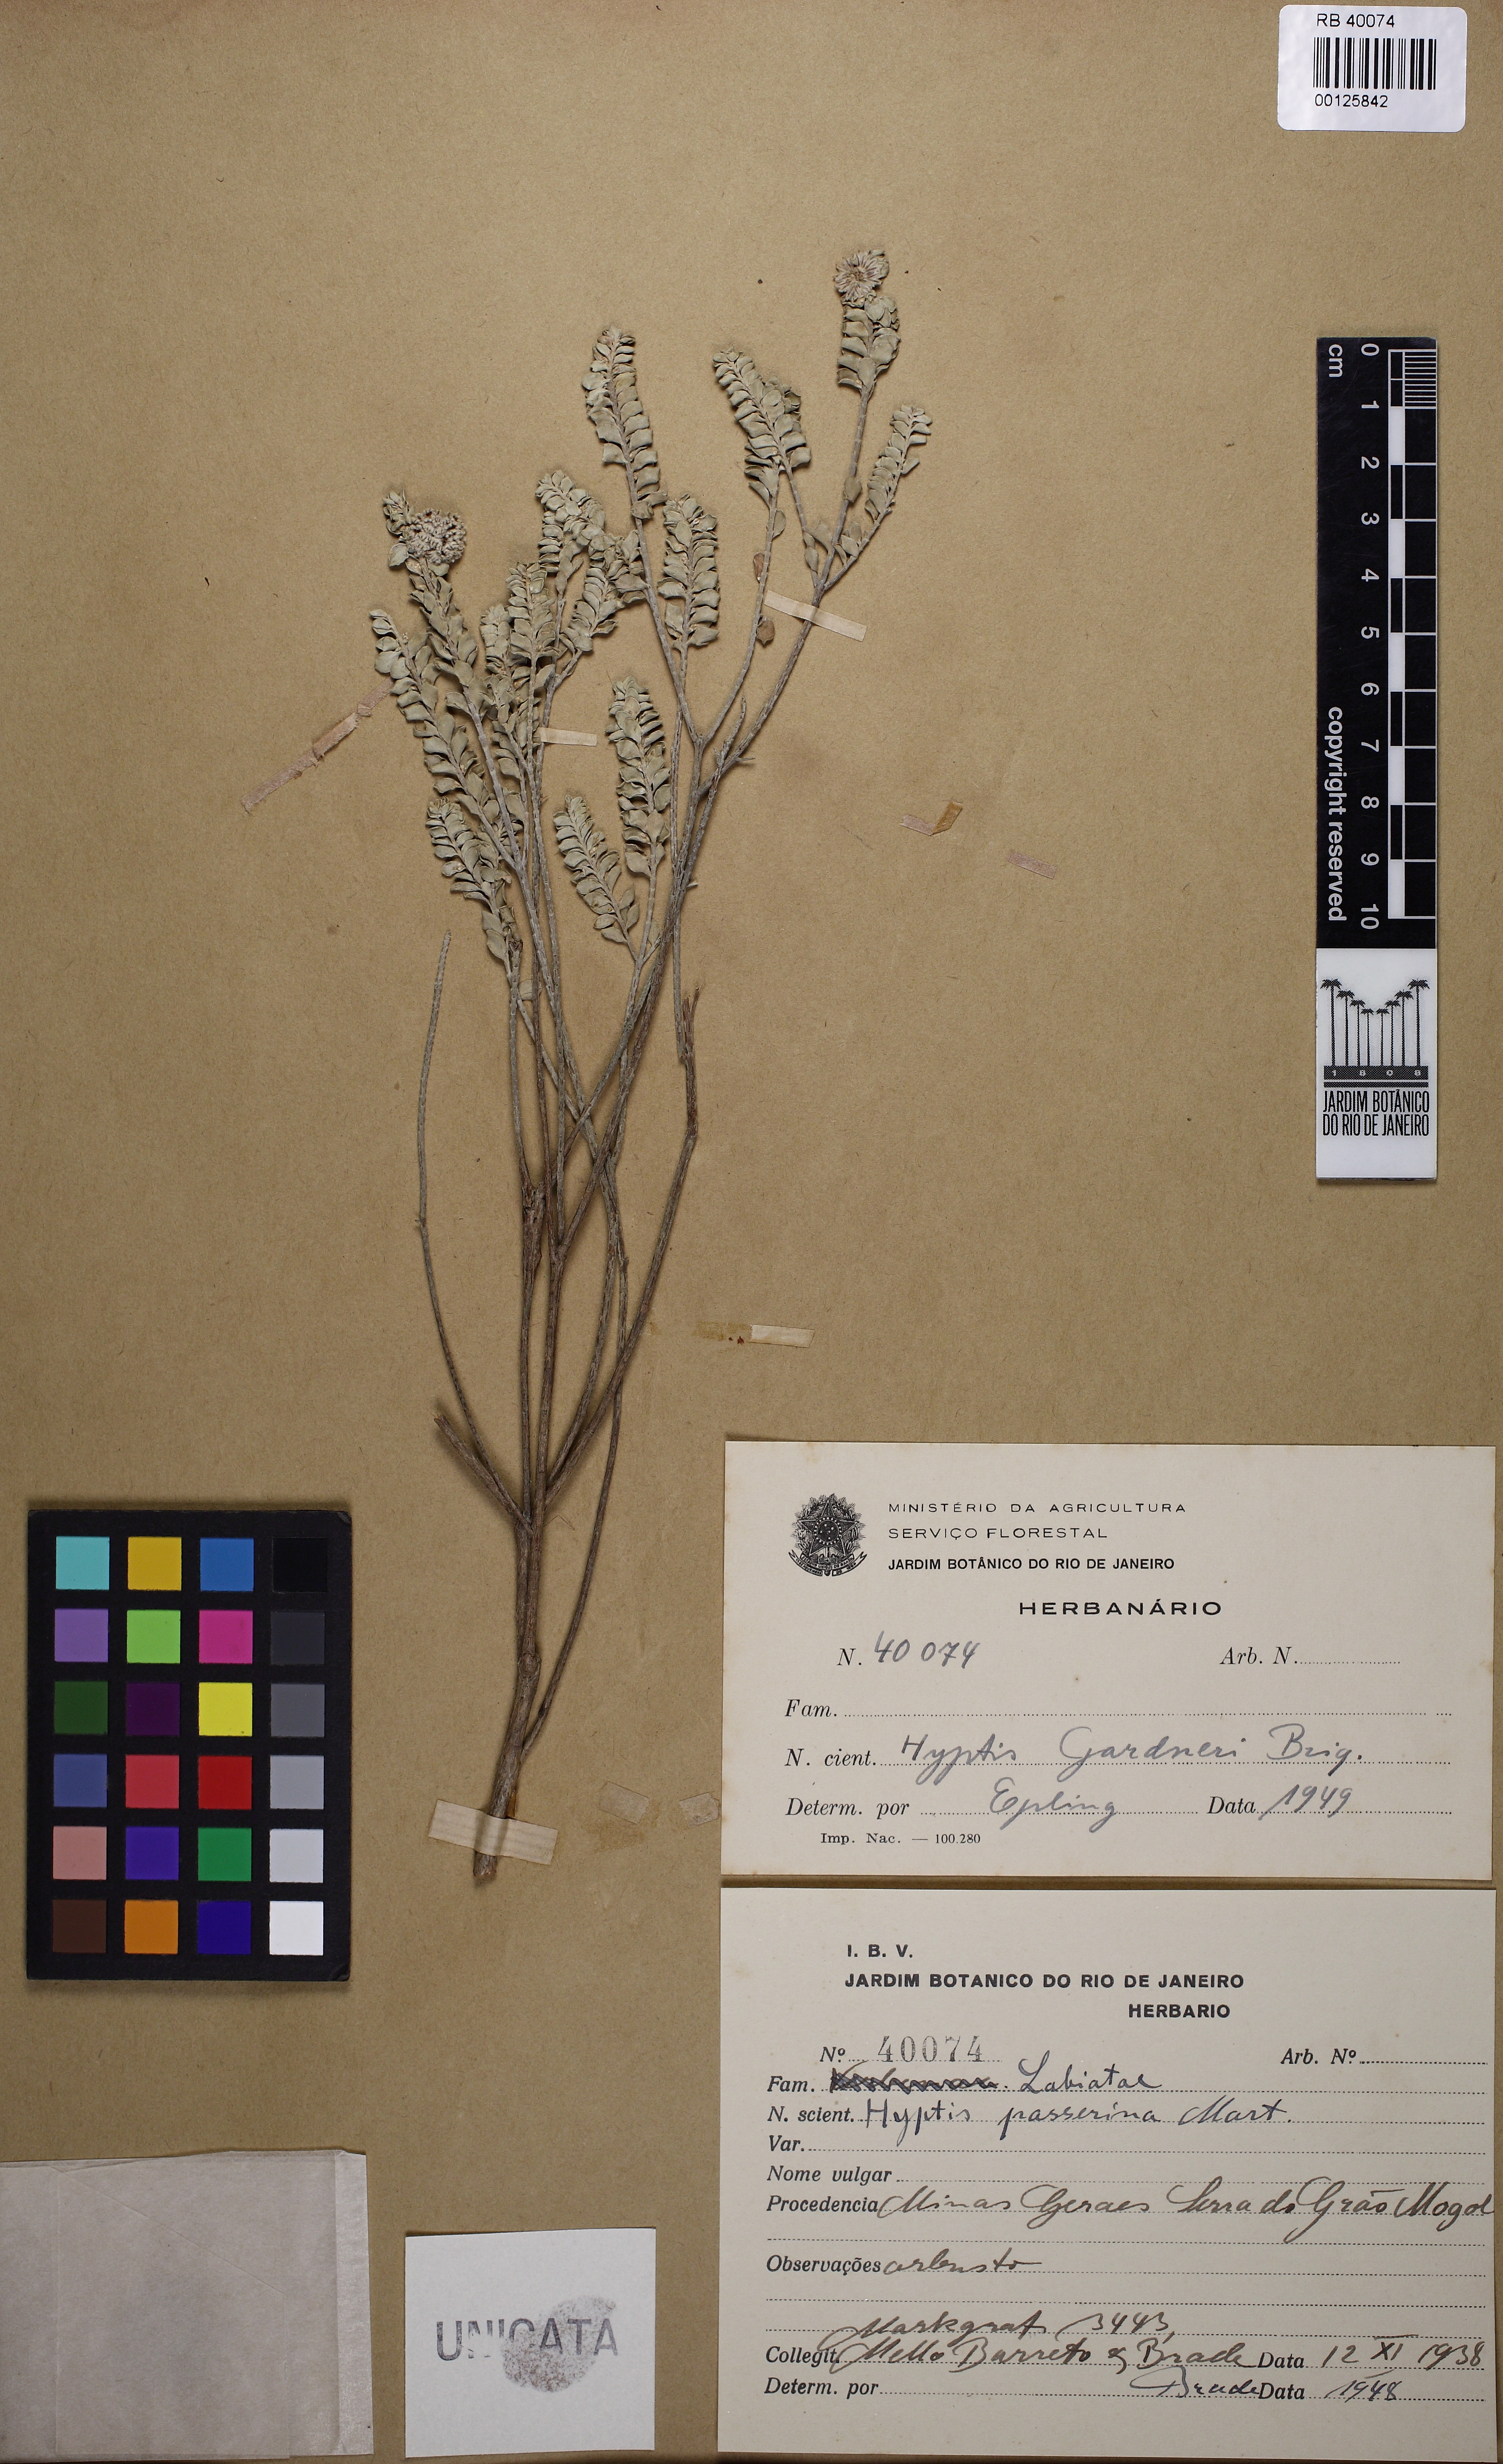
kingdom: Plantae
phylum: Tracheophyta
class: Magnoliopsida
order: Lamiales
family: Lamiaceae
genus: Hyptis
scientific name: Hyptis passerina
